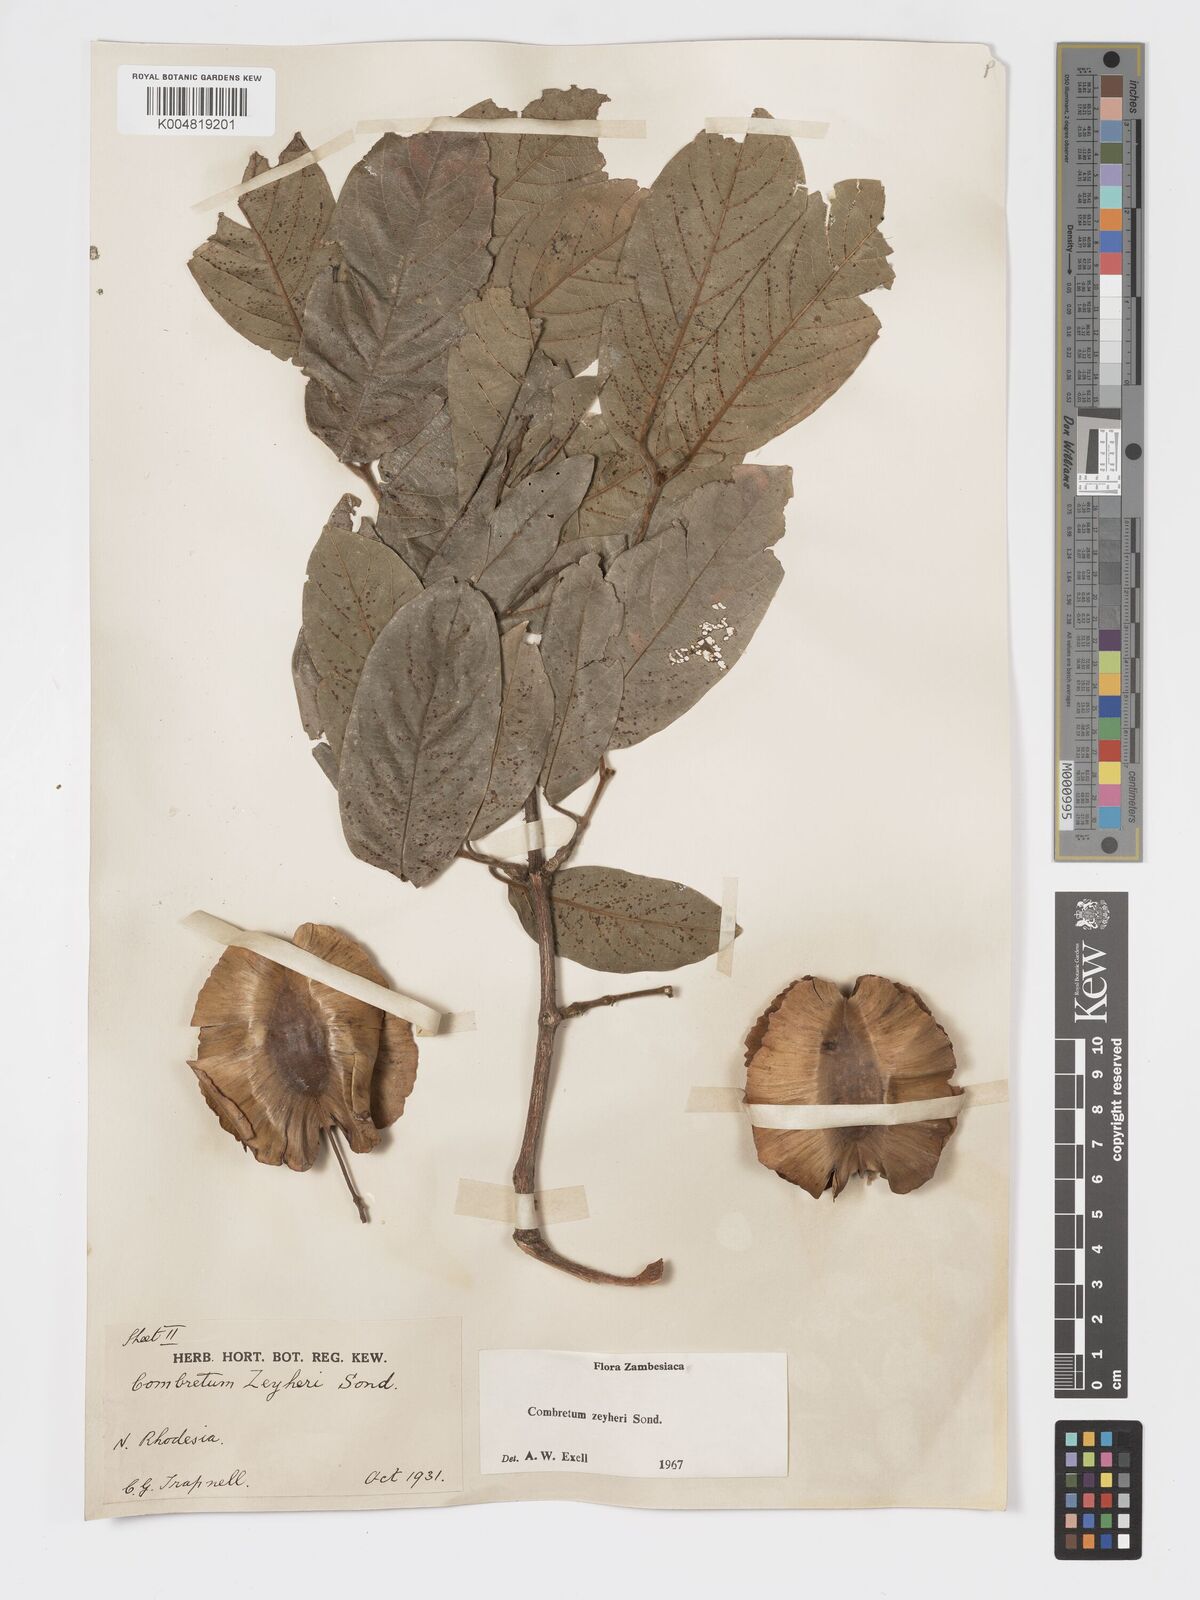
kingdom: Plantae
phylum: Tracheophyta
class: Magnoliopsida
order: Myrtales
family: Combretaceae
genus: Combretum
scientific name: Combretum zeyheri
